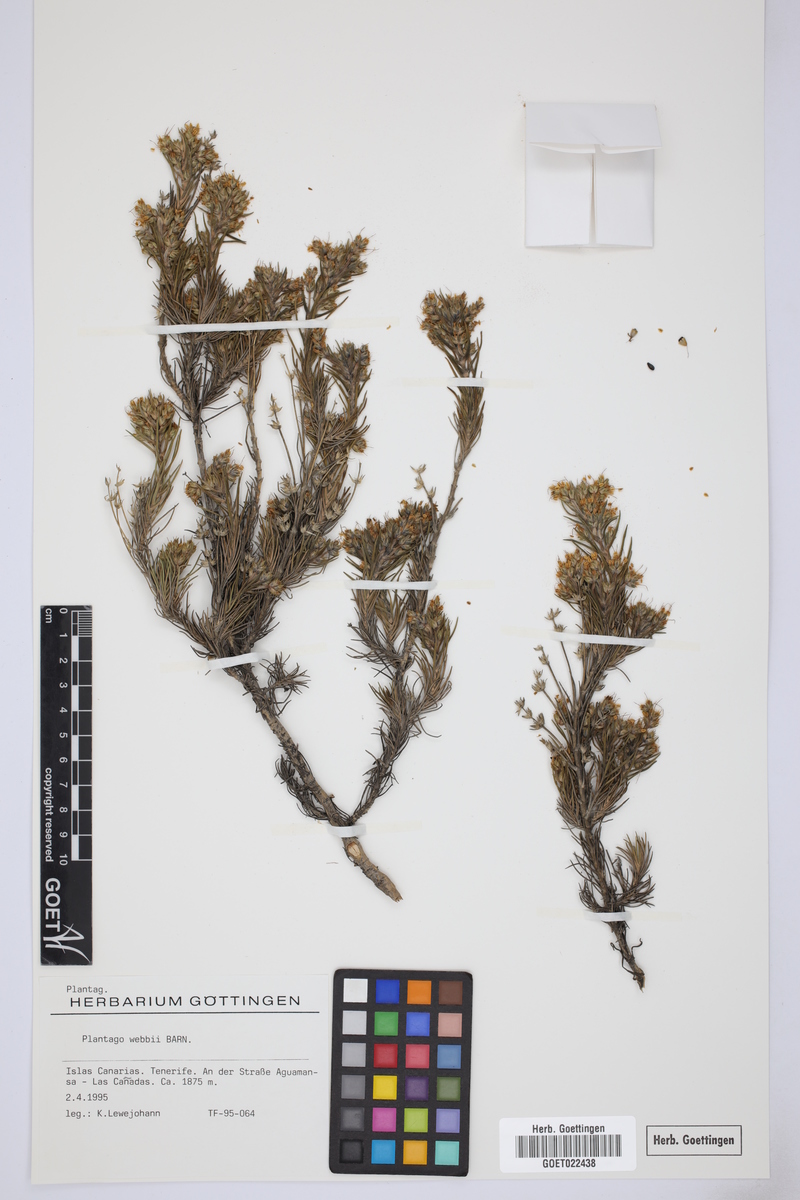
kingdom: Plantae
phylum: Tracheophyta
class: Magnoliopsida
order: Lamiales
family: Plantaginaceae
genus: Plantago
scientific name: Plantago webbii
